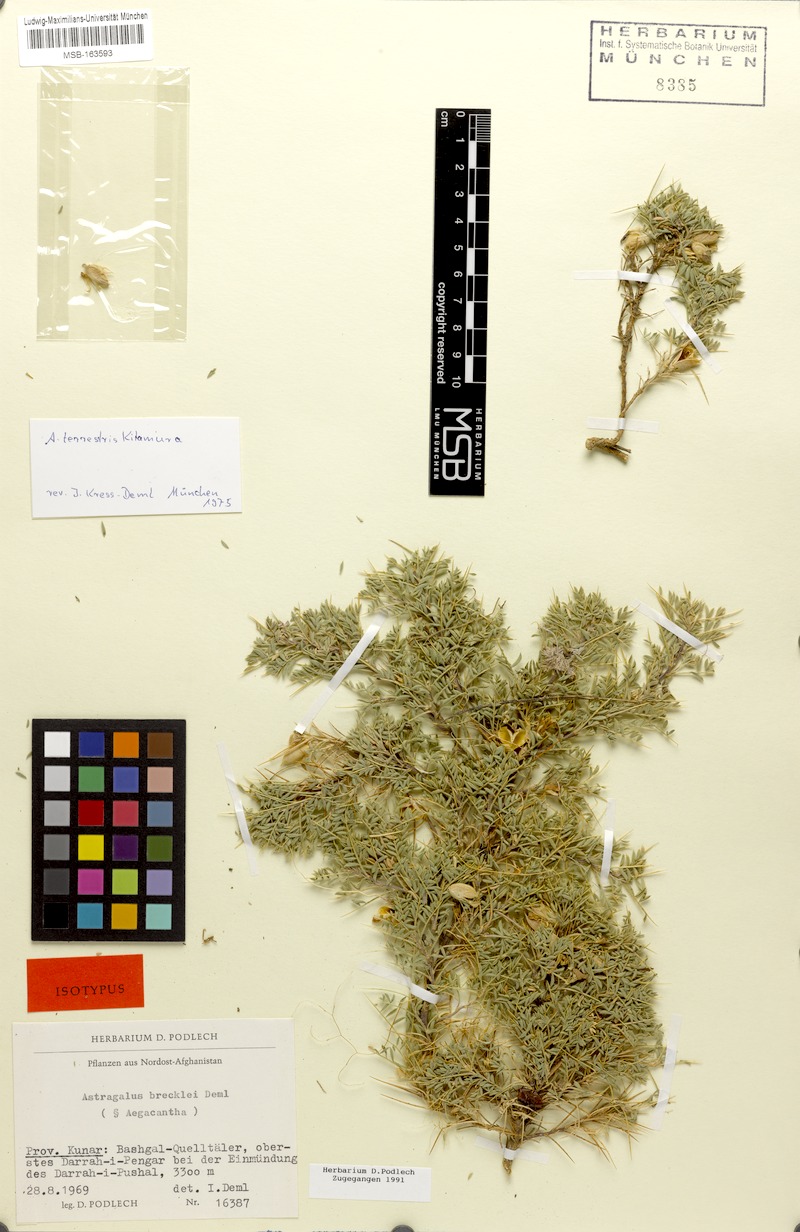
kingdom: Plantae
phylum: Tracheophyta
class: Magnoliopsida
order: Fabales
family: Fabaceae
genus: Astragalus
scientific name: Astragalus terrestris
